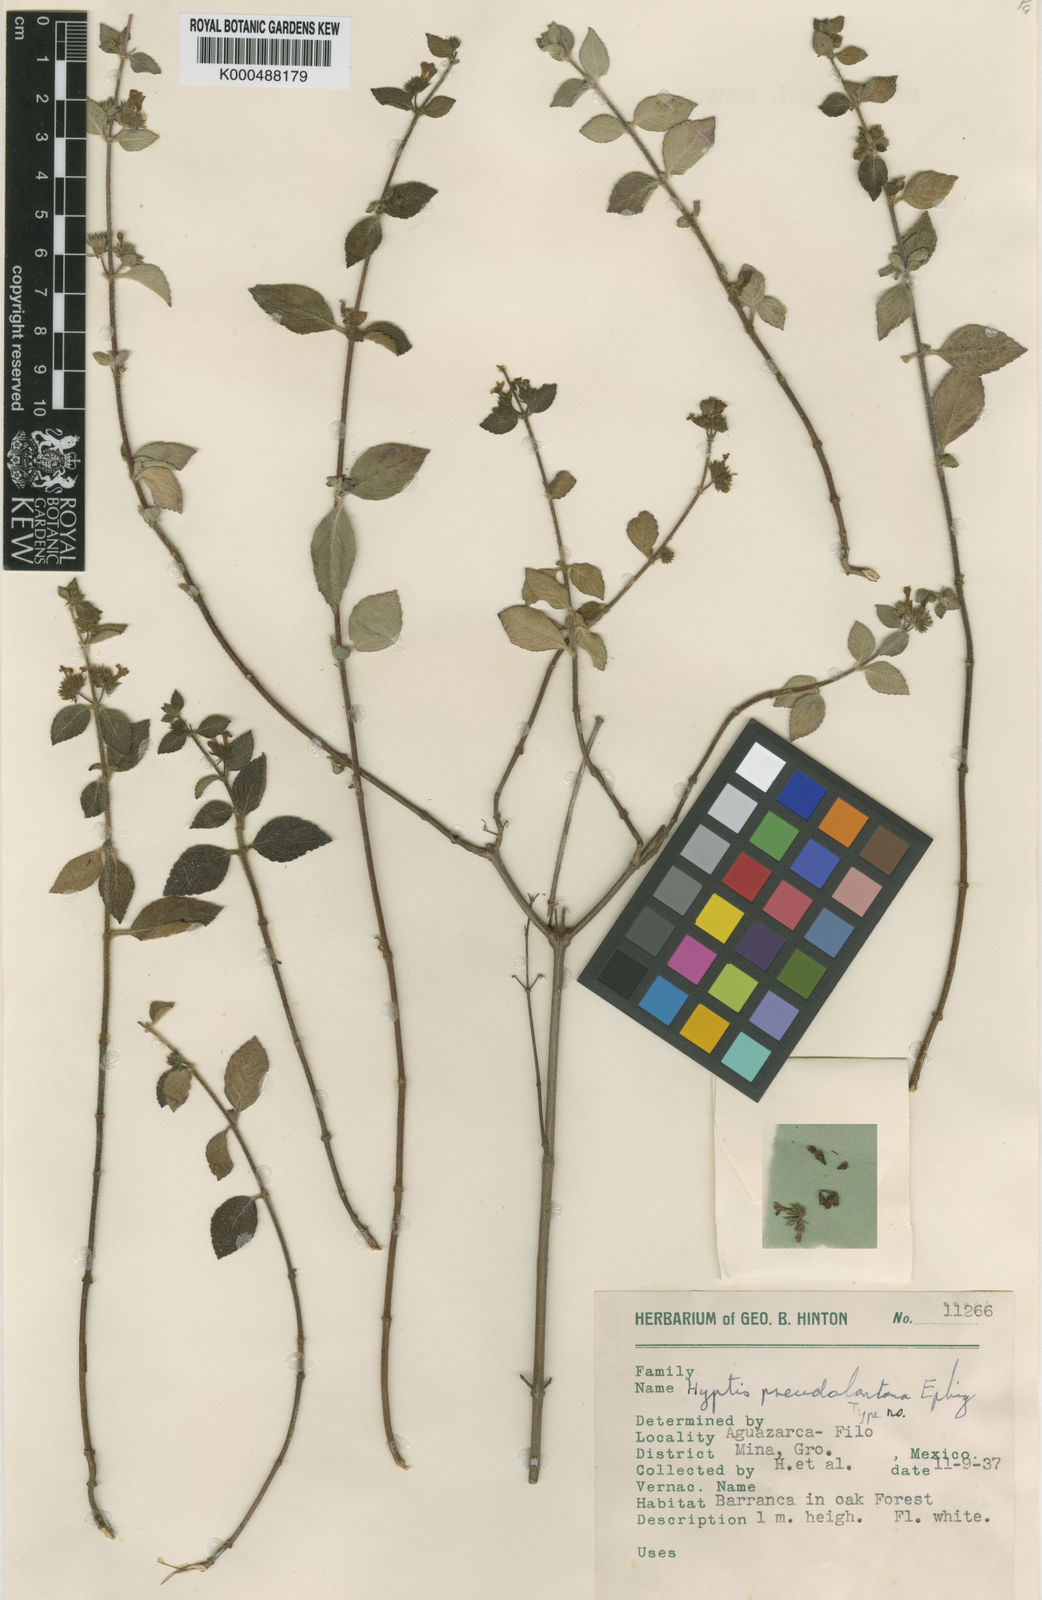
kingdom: Plantae
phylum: Tracheophyta
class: Magnoliopsida
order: Lamiales
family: Lamiaceae
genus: Hyptis
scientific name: Hyptis pseudolantana
